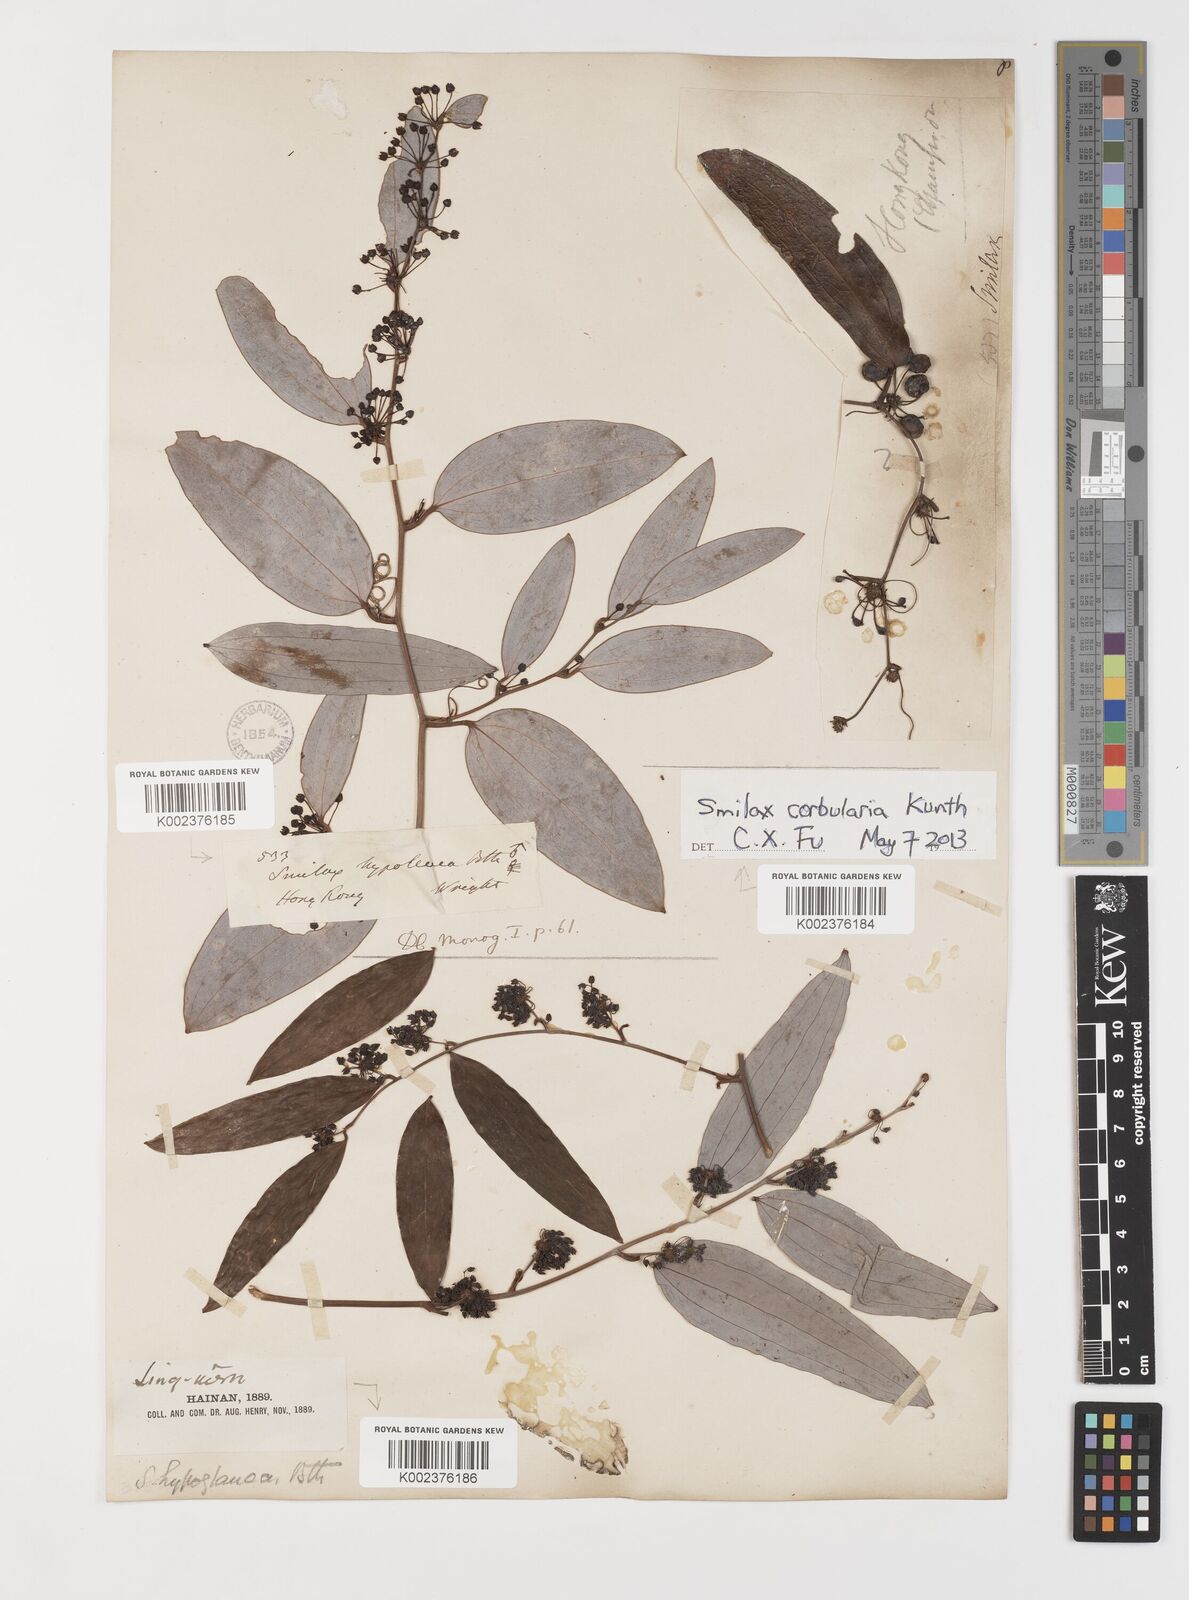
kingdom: Plantae
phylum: Tracheophyta
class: Liliopsida
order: Liliales
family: Smilacaceae
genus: Smilax
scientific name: Smilax corbularia
